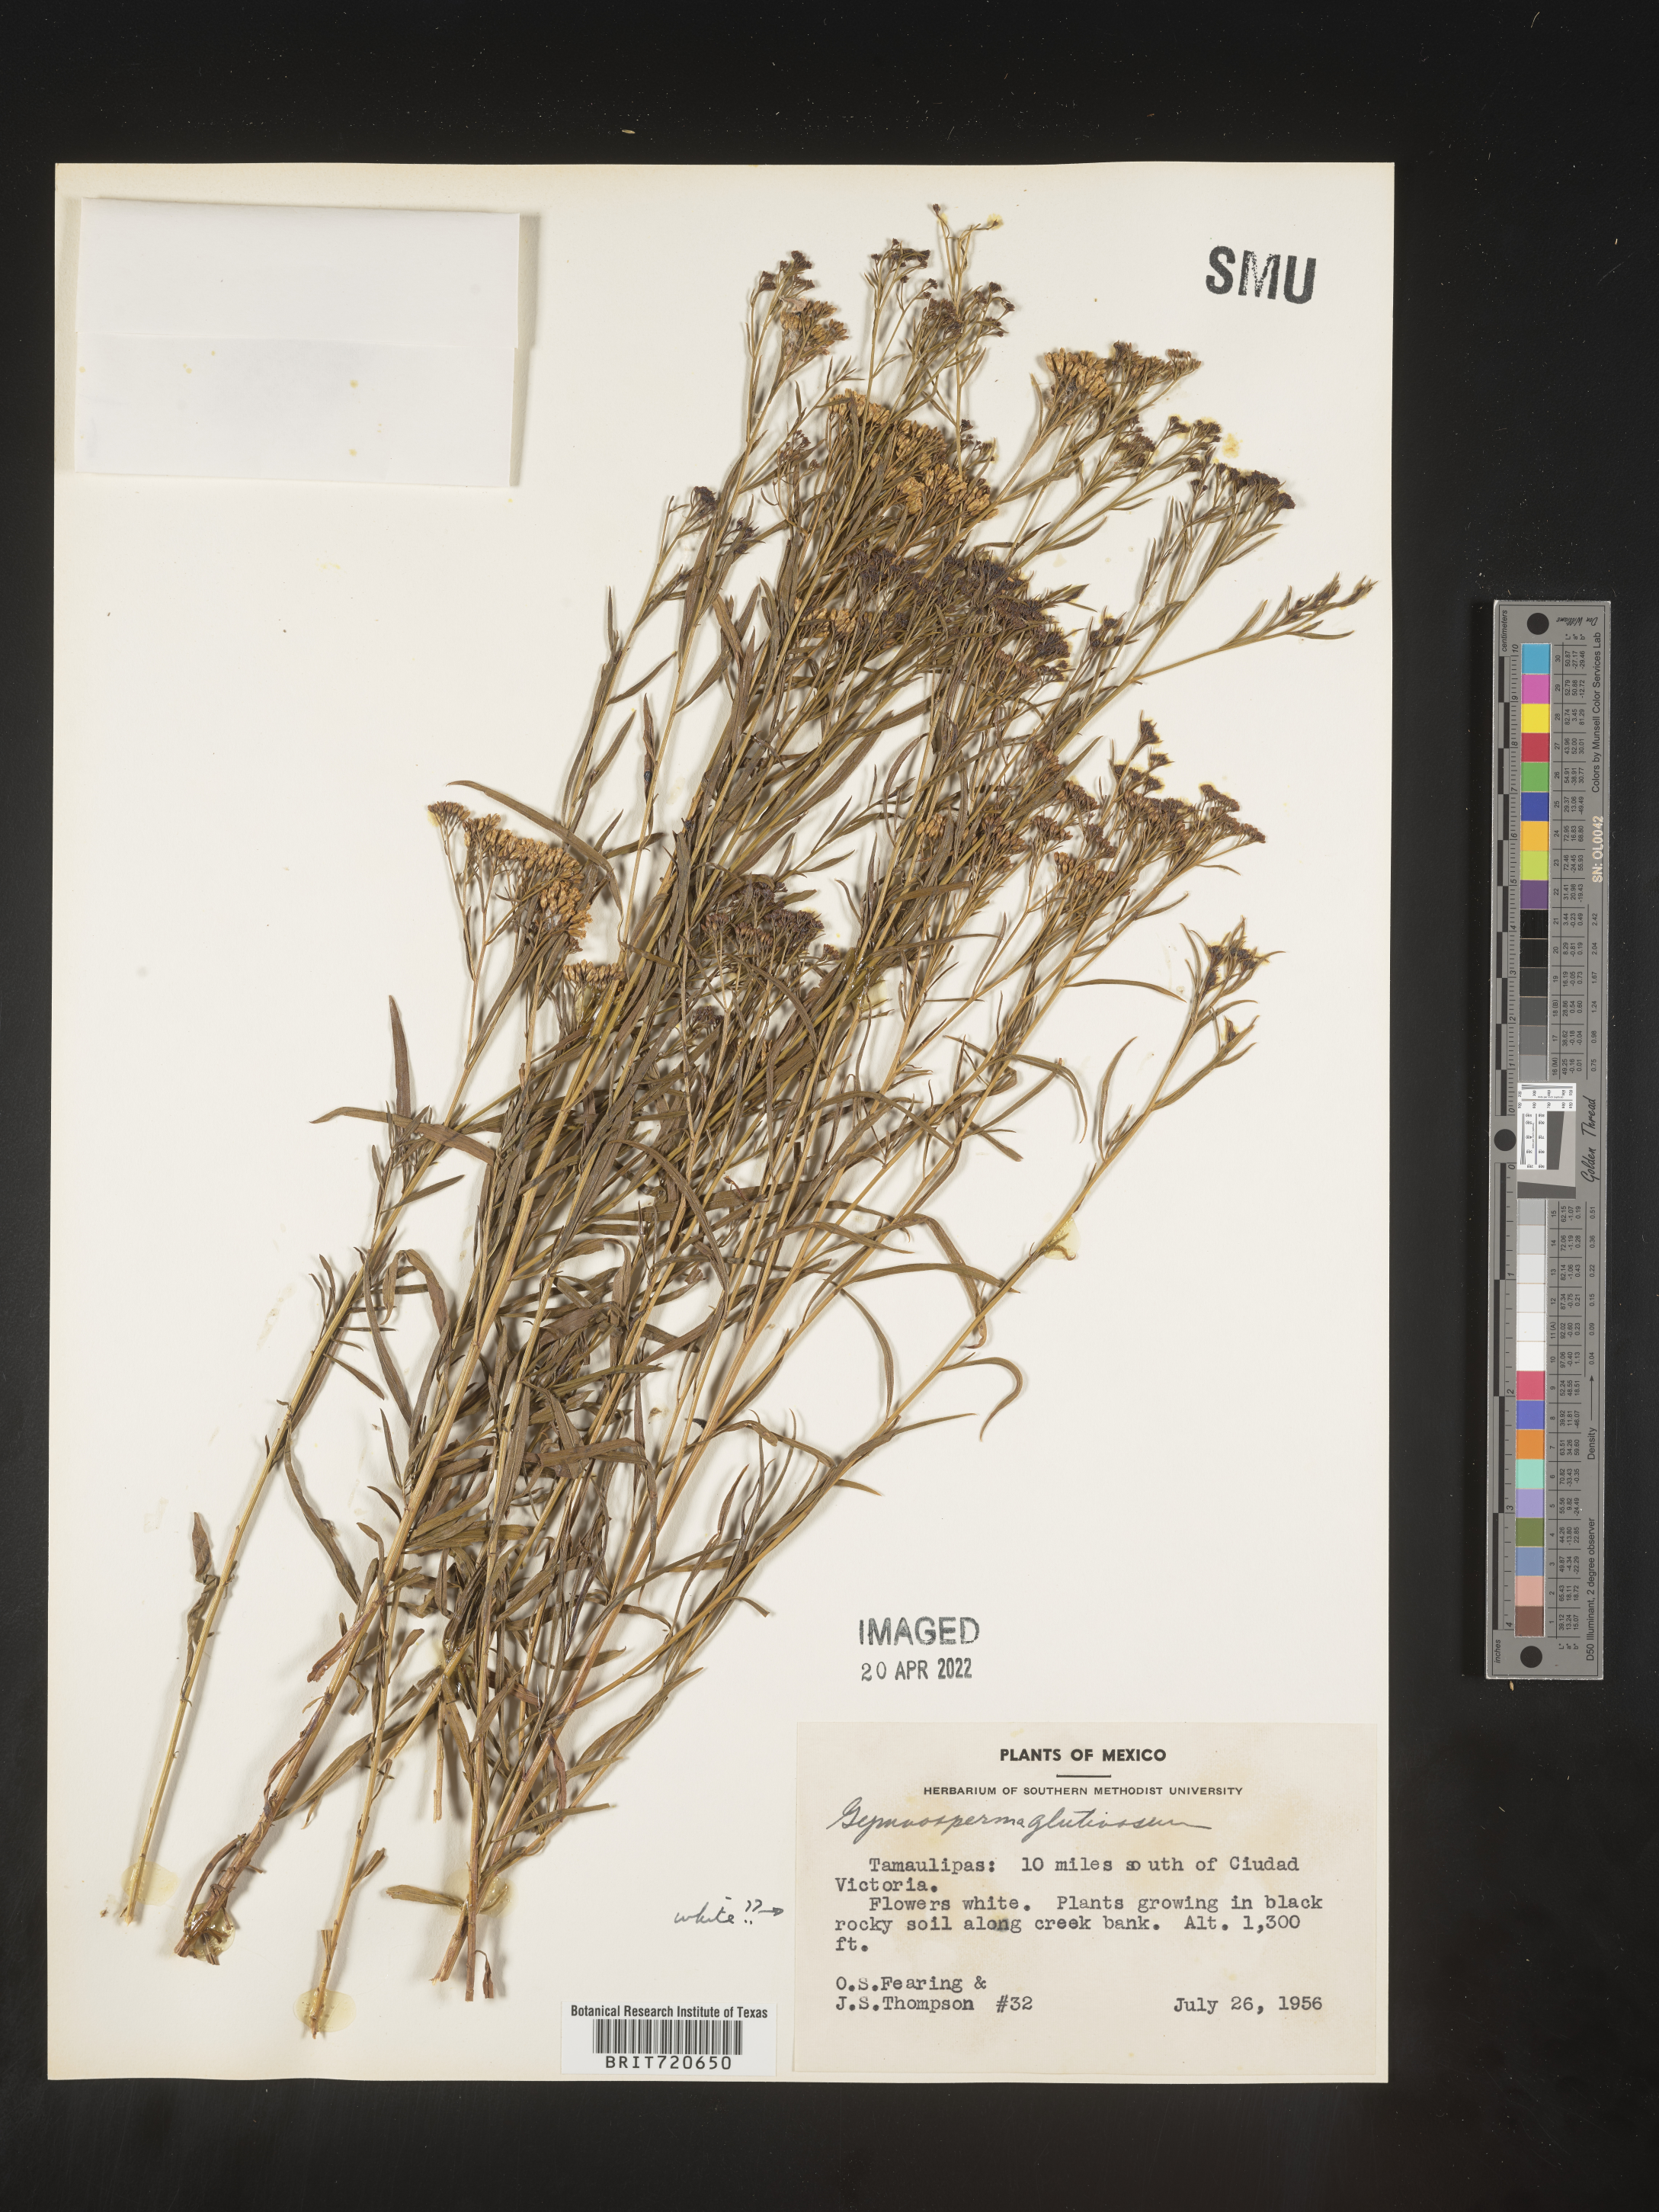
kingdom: Plantae
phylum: Tracheophyta
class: Magnoliopsida
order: Asterales
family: Asteraceae
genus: Gymnosperma
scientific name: Gymnosperma glutinosum
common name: Gumhead
